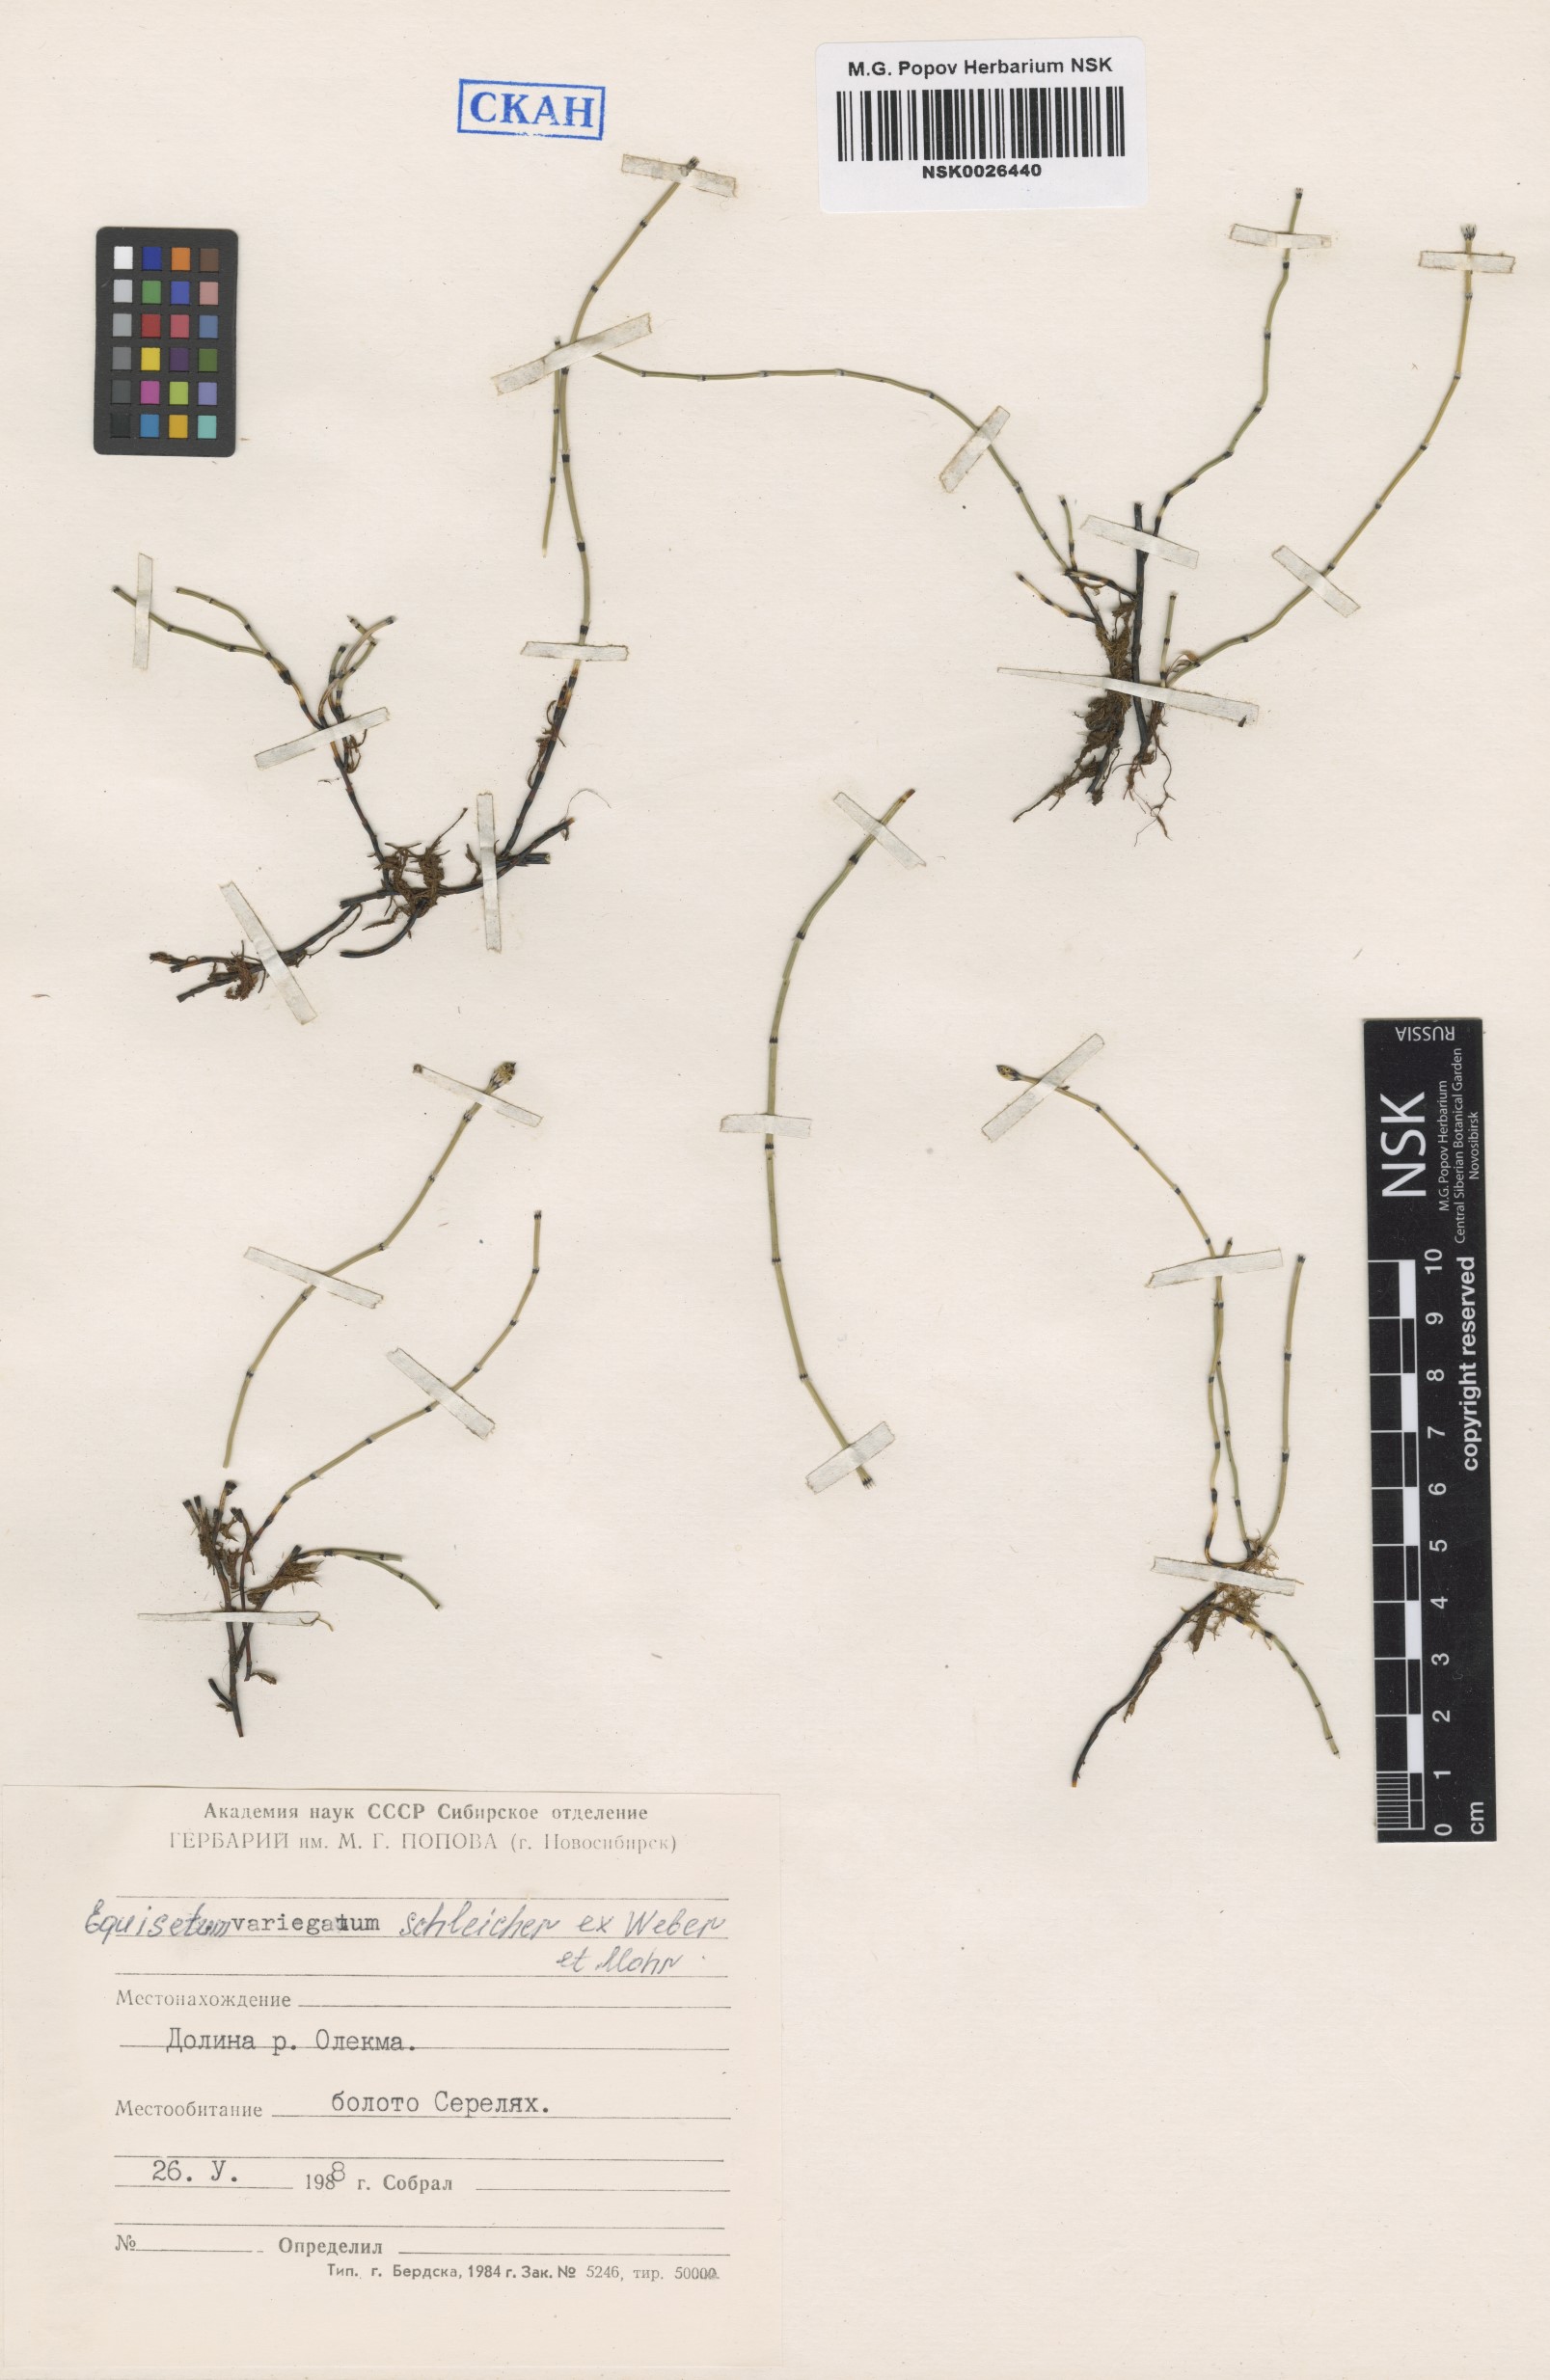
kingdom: Plantae
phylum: Tracheophyta
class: Polypodiopsida
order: Equisetales
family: Equisetaceae
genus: Equisetum
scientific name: Equisetum variegatum
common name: Variegated horsetail
